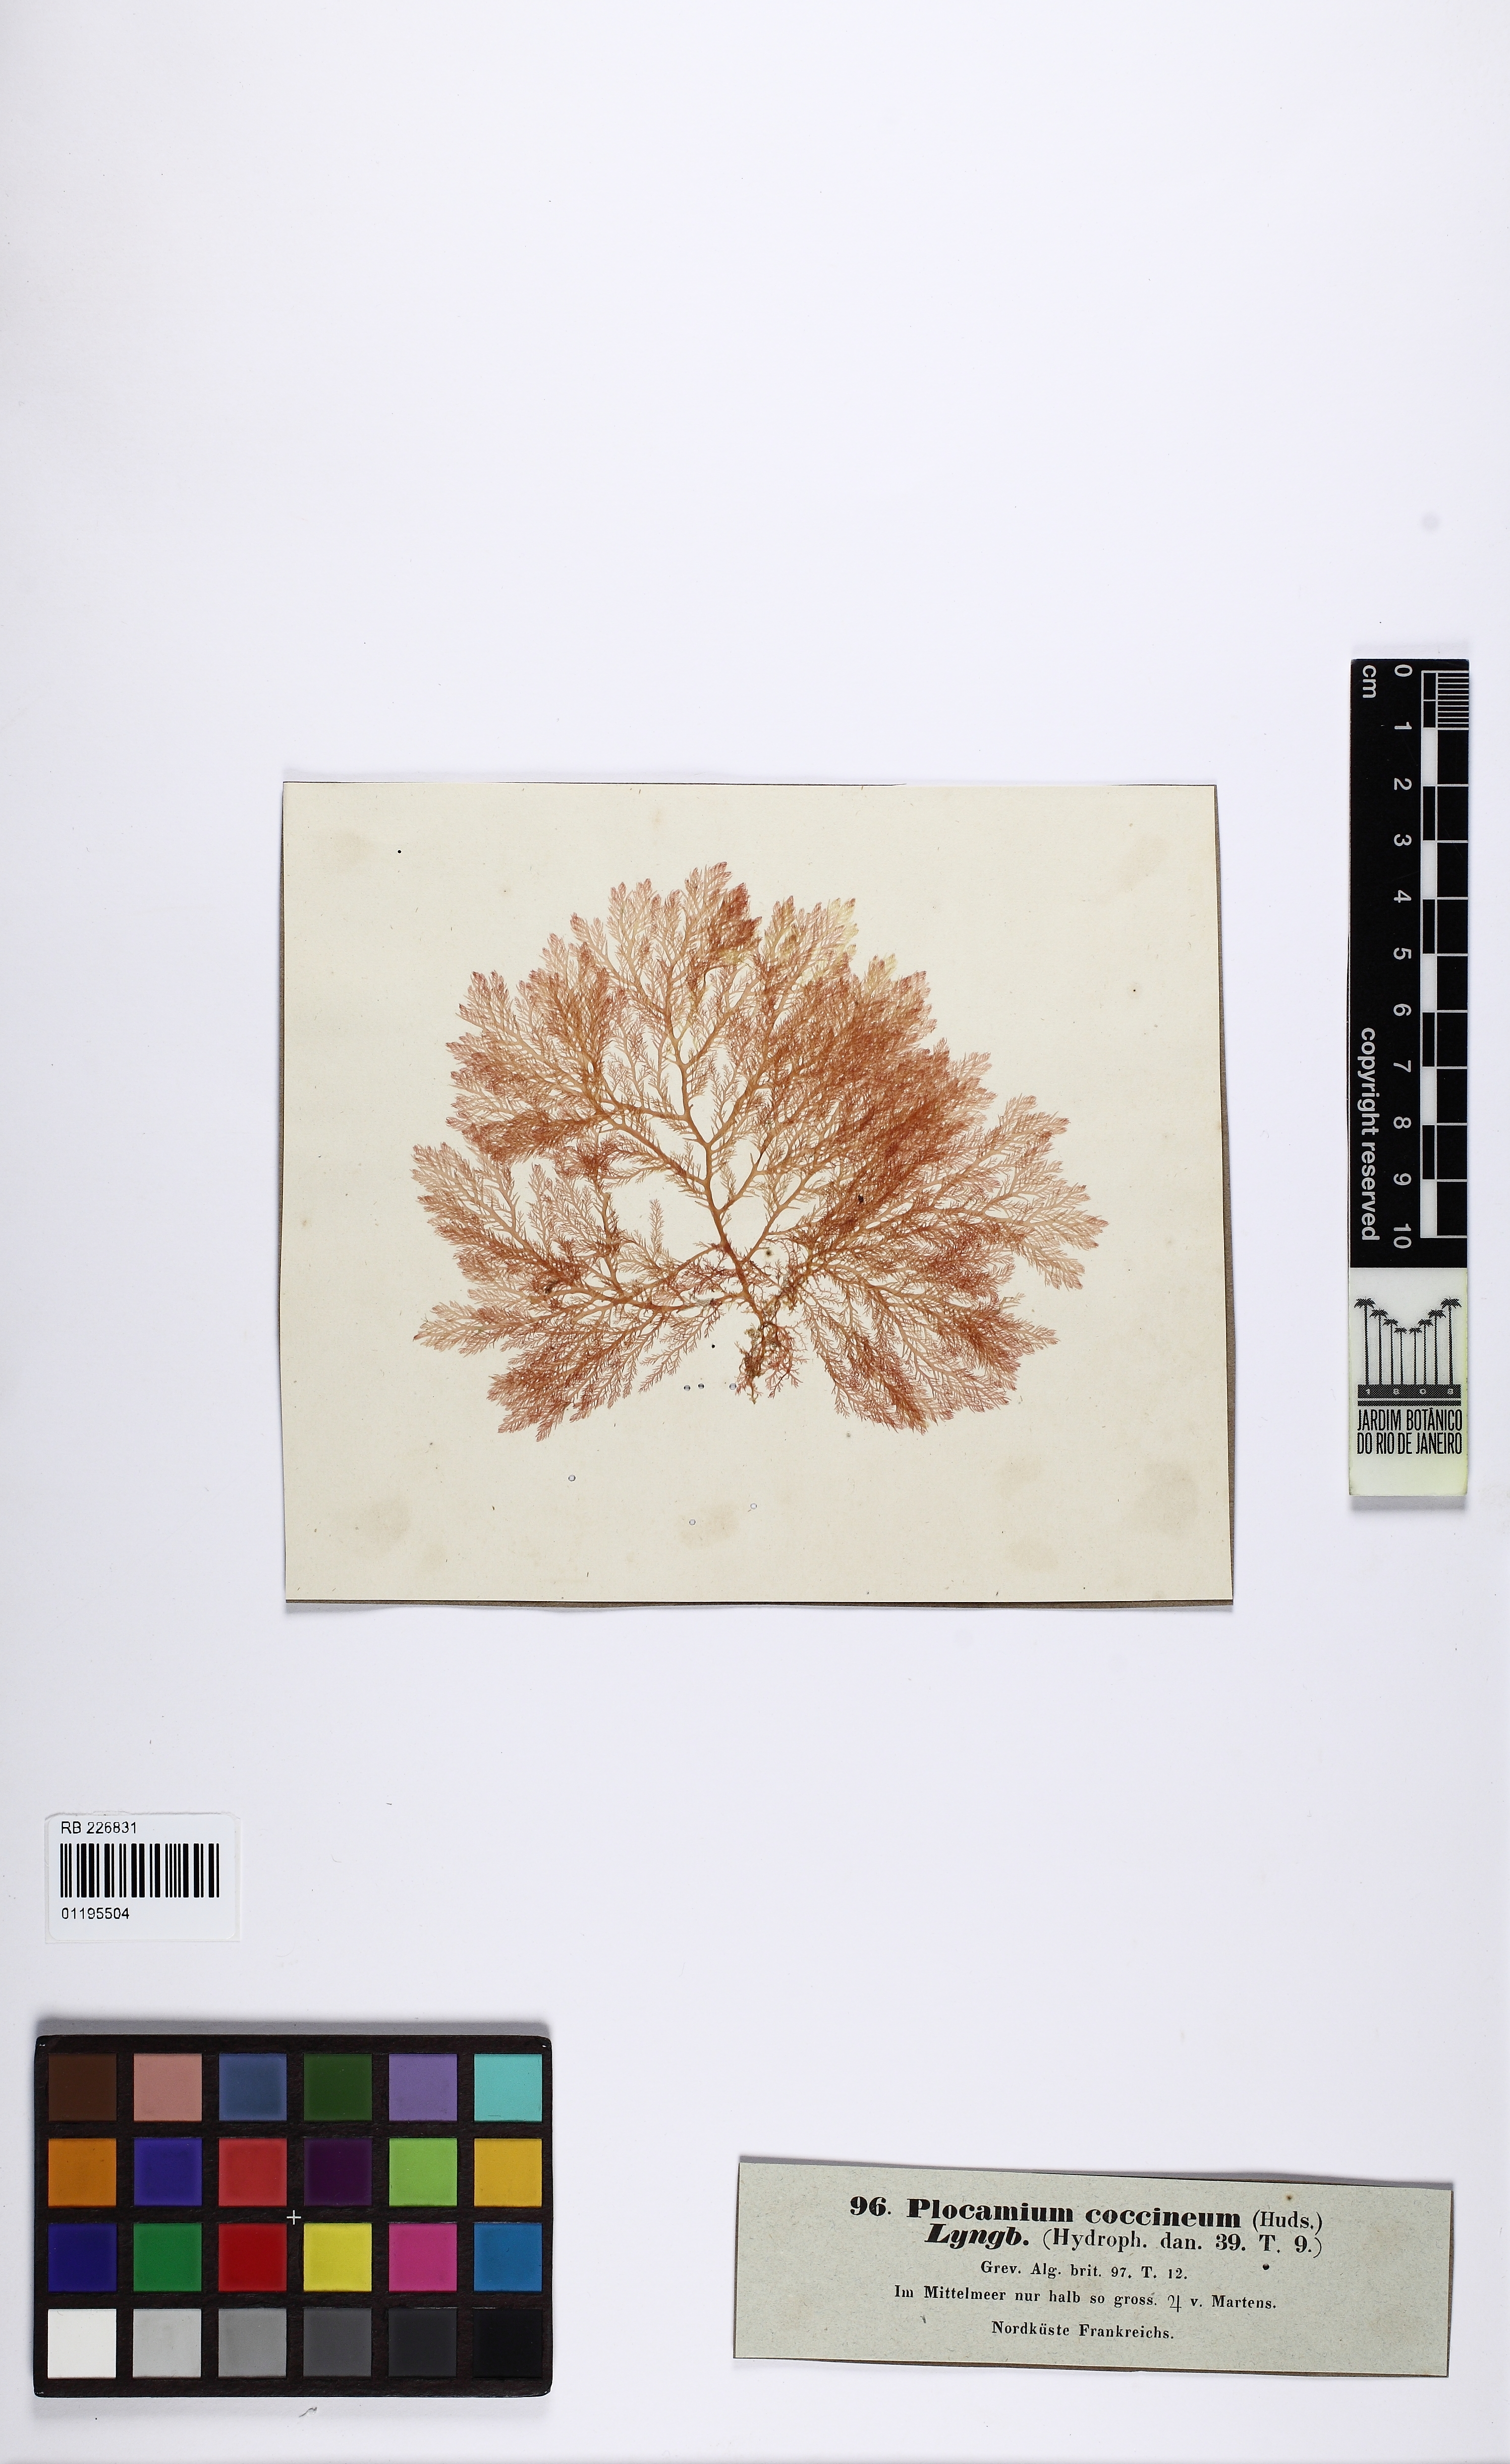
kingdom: Plantae
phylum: Rhodophyta
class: Florideophyceae
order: Plocamiales
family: Plocamiaceae
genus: Plocamium
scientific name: Plocamium cartilagineum
